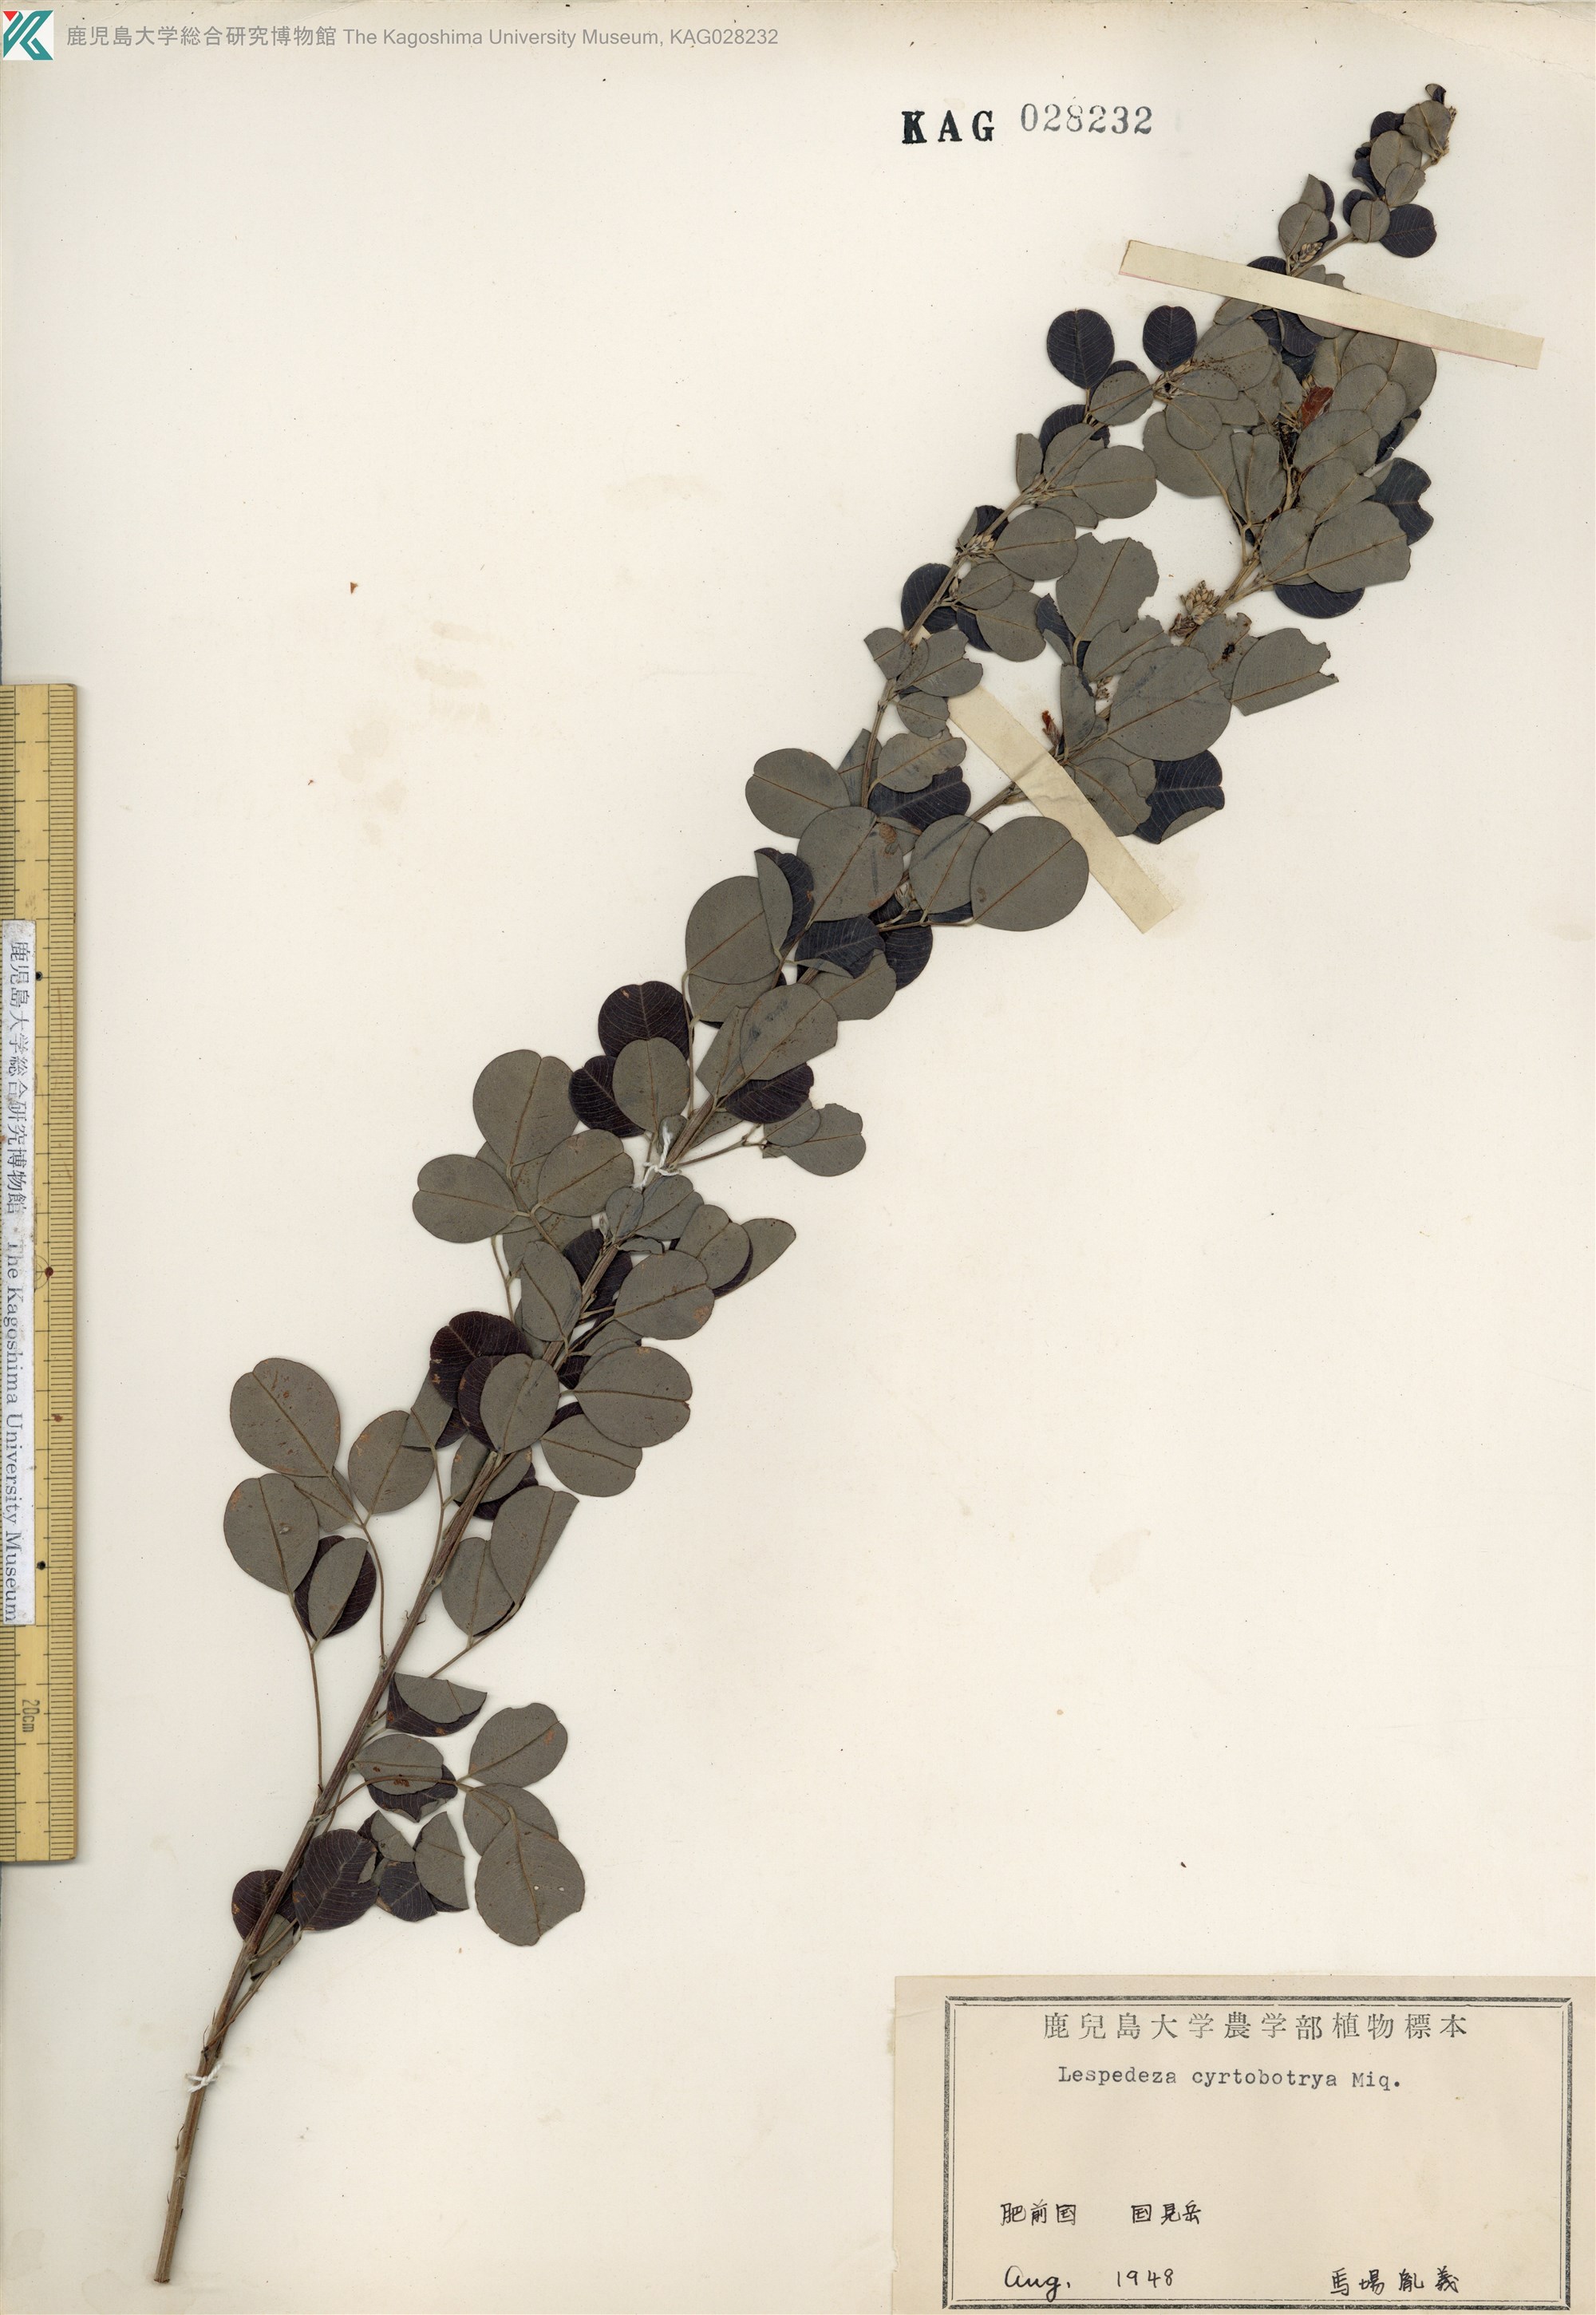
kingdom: Plantae
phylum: Tracheophyta
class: Magnoliopsida
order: Fabales
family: Fabaceae
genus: Lespedeza
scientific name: Lespedeza cyrtobotrya
